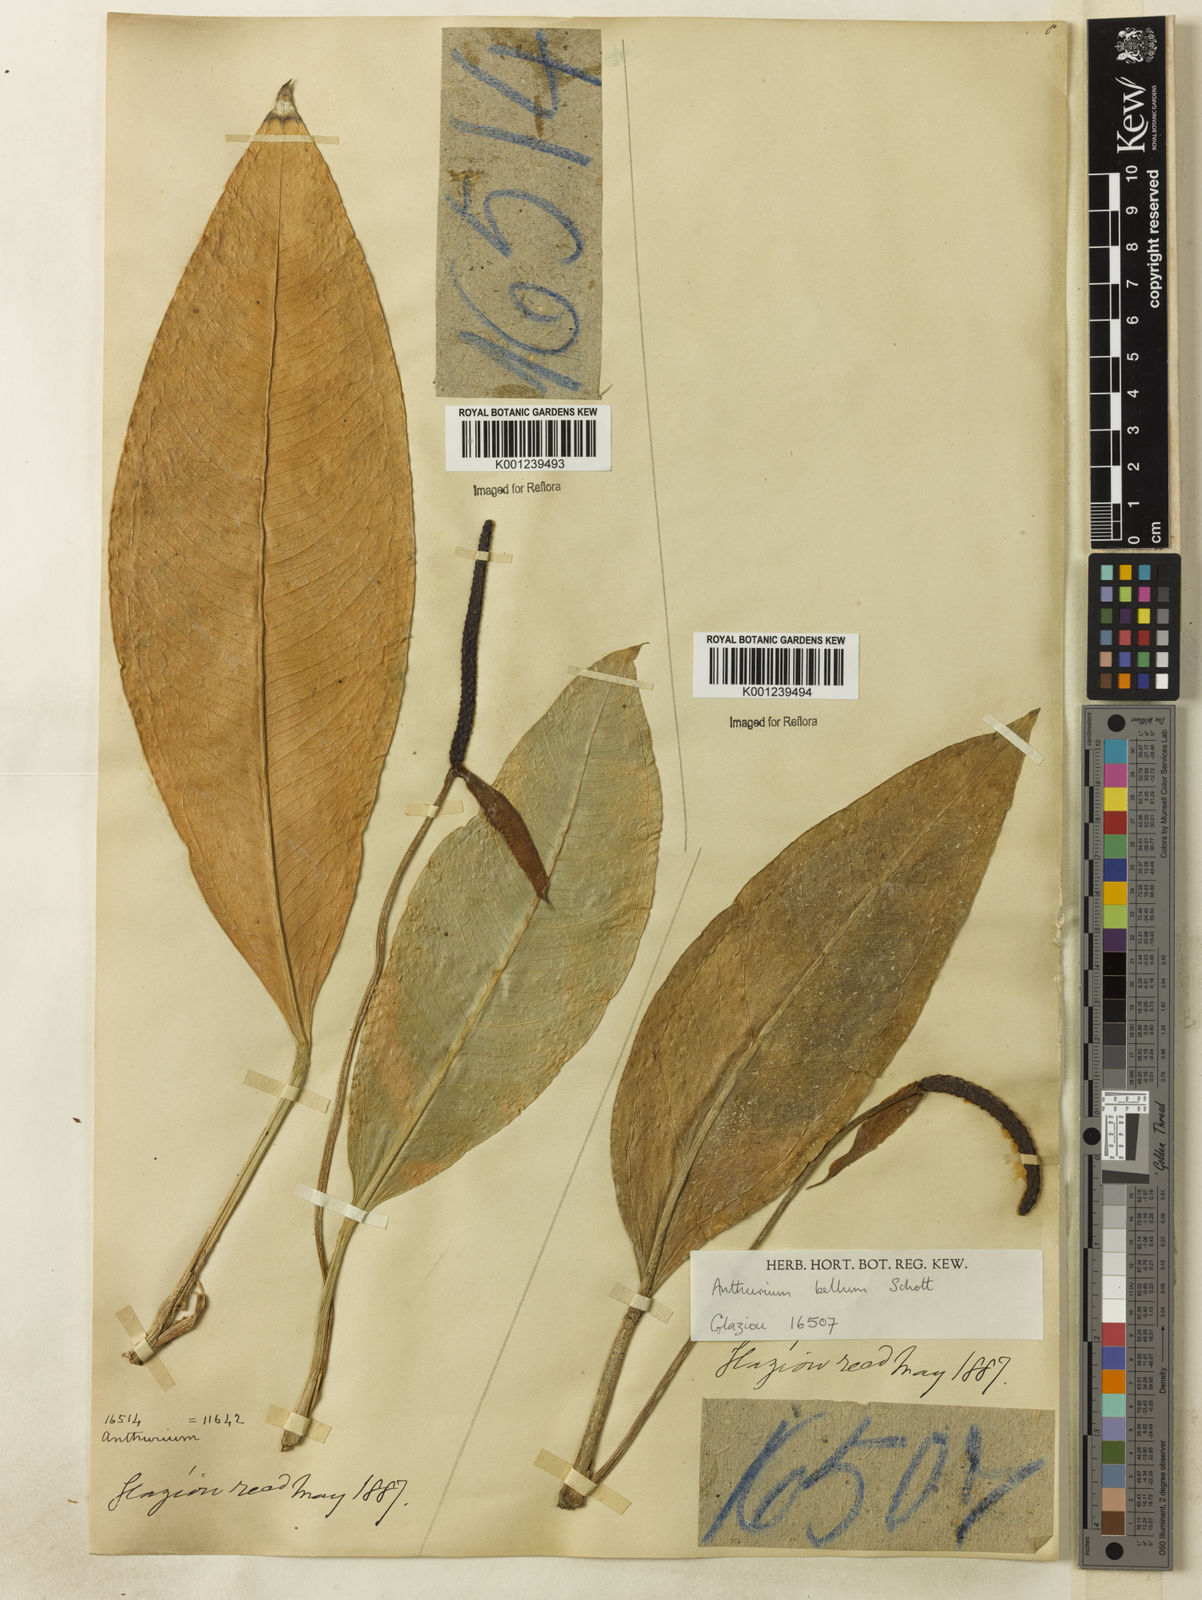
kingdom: Plantae
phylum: Tracheophyta
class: Liliopsida
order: Alismatales
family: Araceae
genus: Anthurium
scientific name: Anthurium bellum
